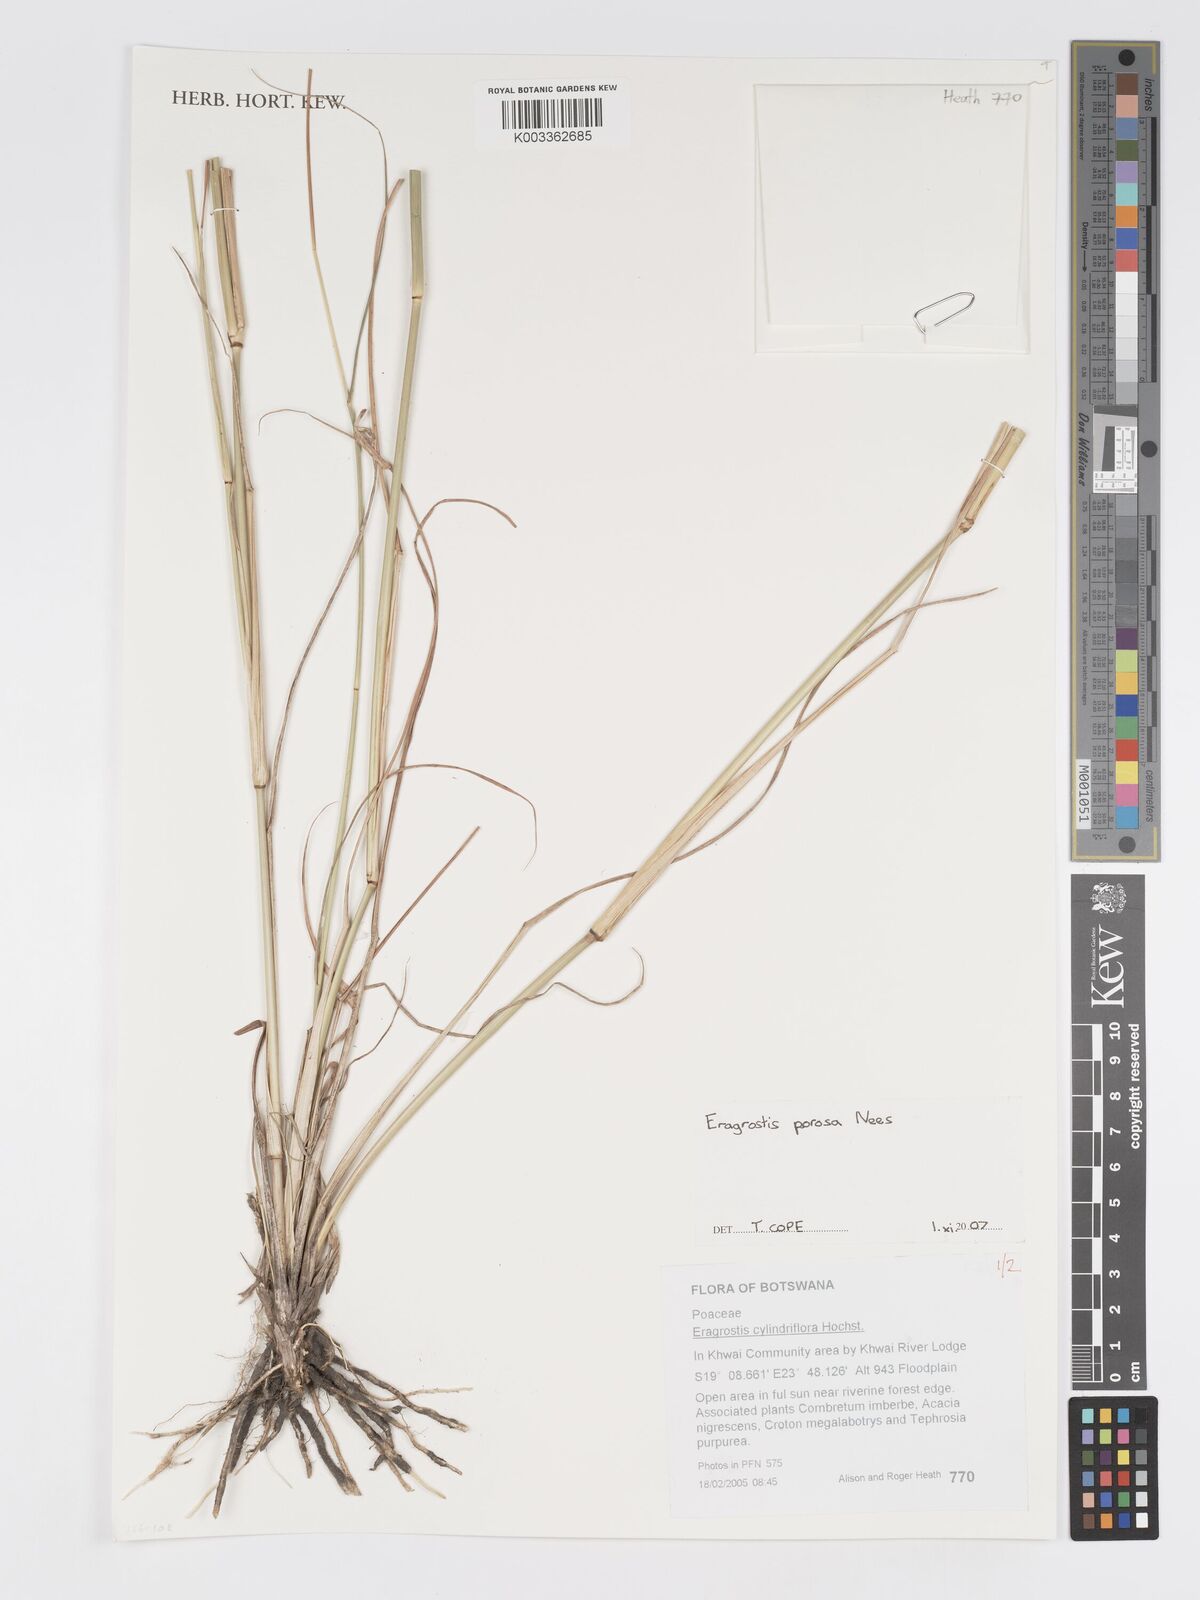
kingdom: Plantae
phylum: Tracheophyta
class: Liliopsida
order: Poales
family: Poaceae
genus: Eragrostis
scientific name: Eragrostis porosa
